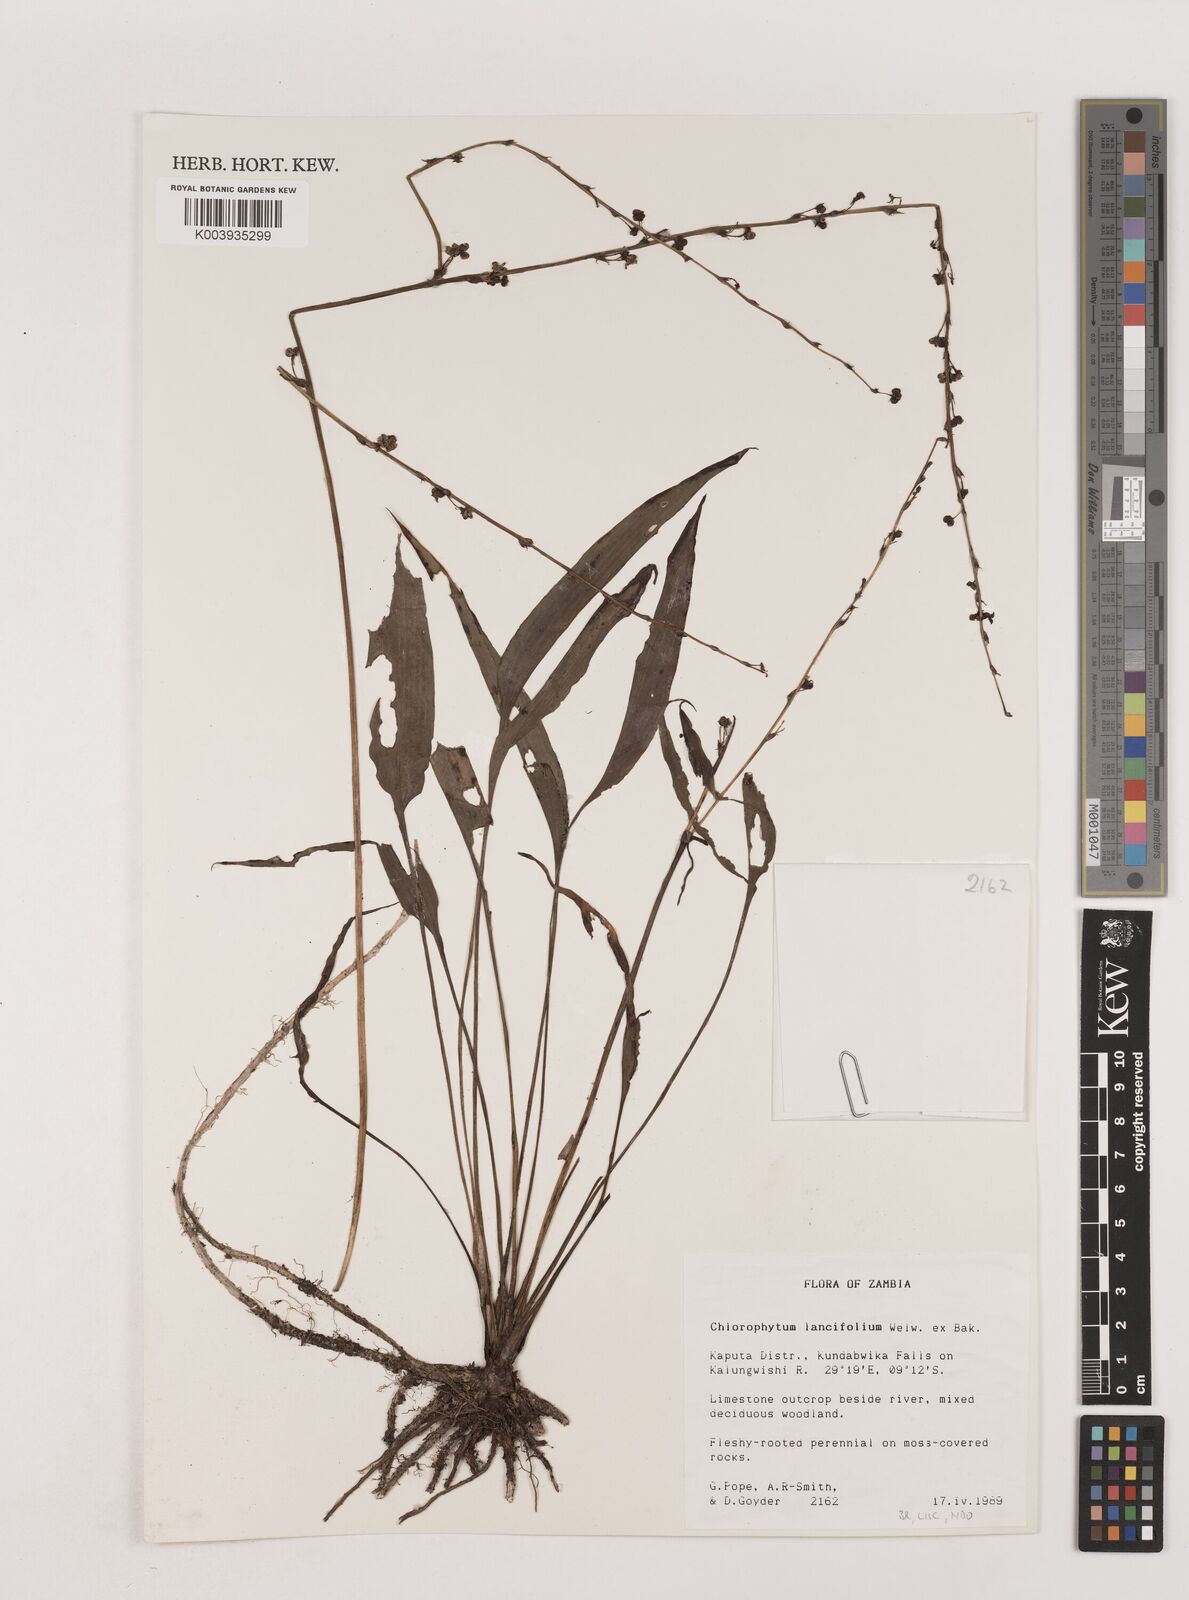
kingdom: Plantae
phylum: Tracheophyta
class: Liliopsida
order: Asparagales
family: Asparagaceae
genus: Chlorophytum
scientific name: Chlorophytum lancifolium
